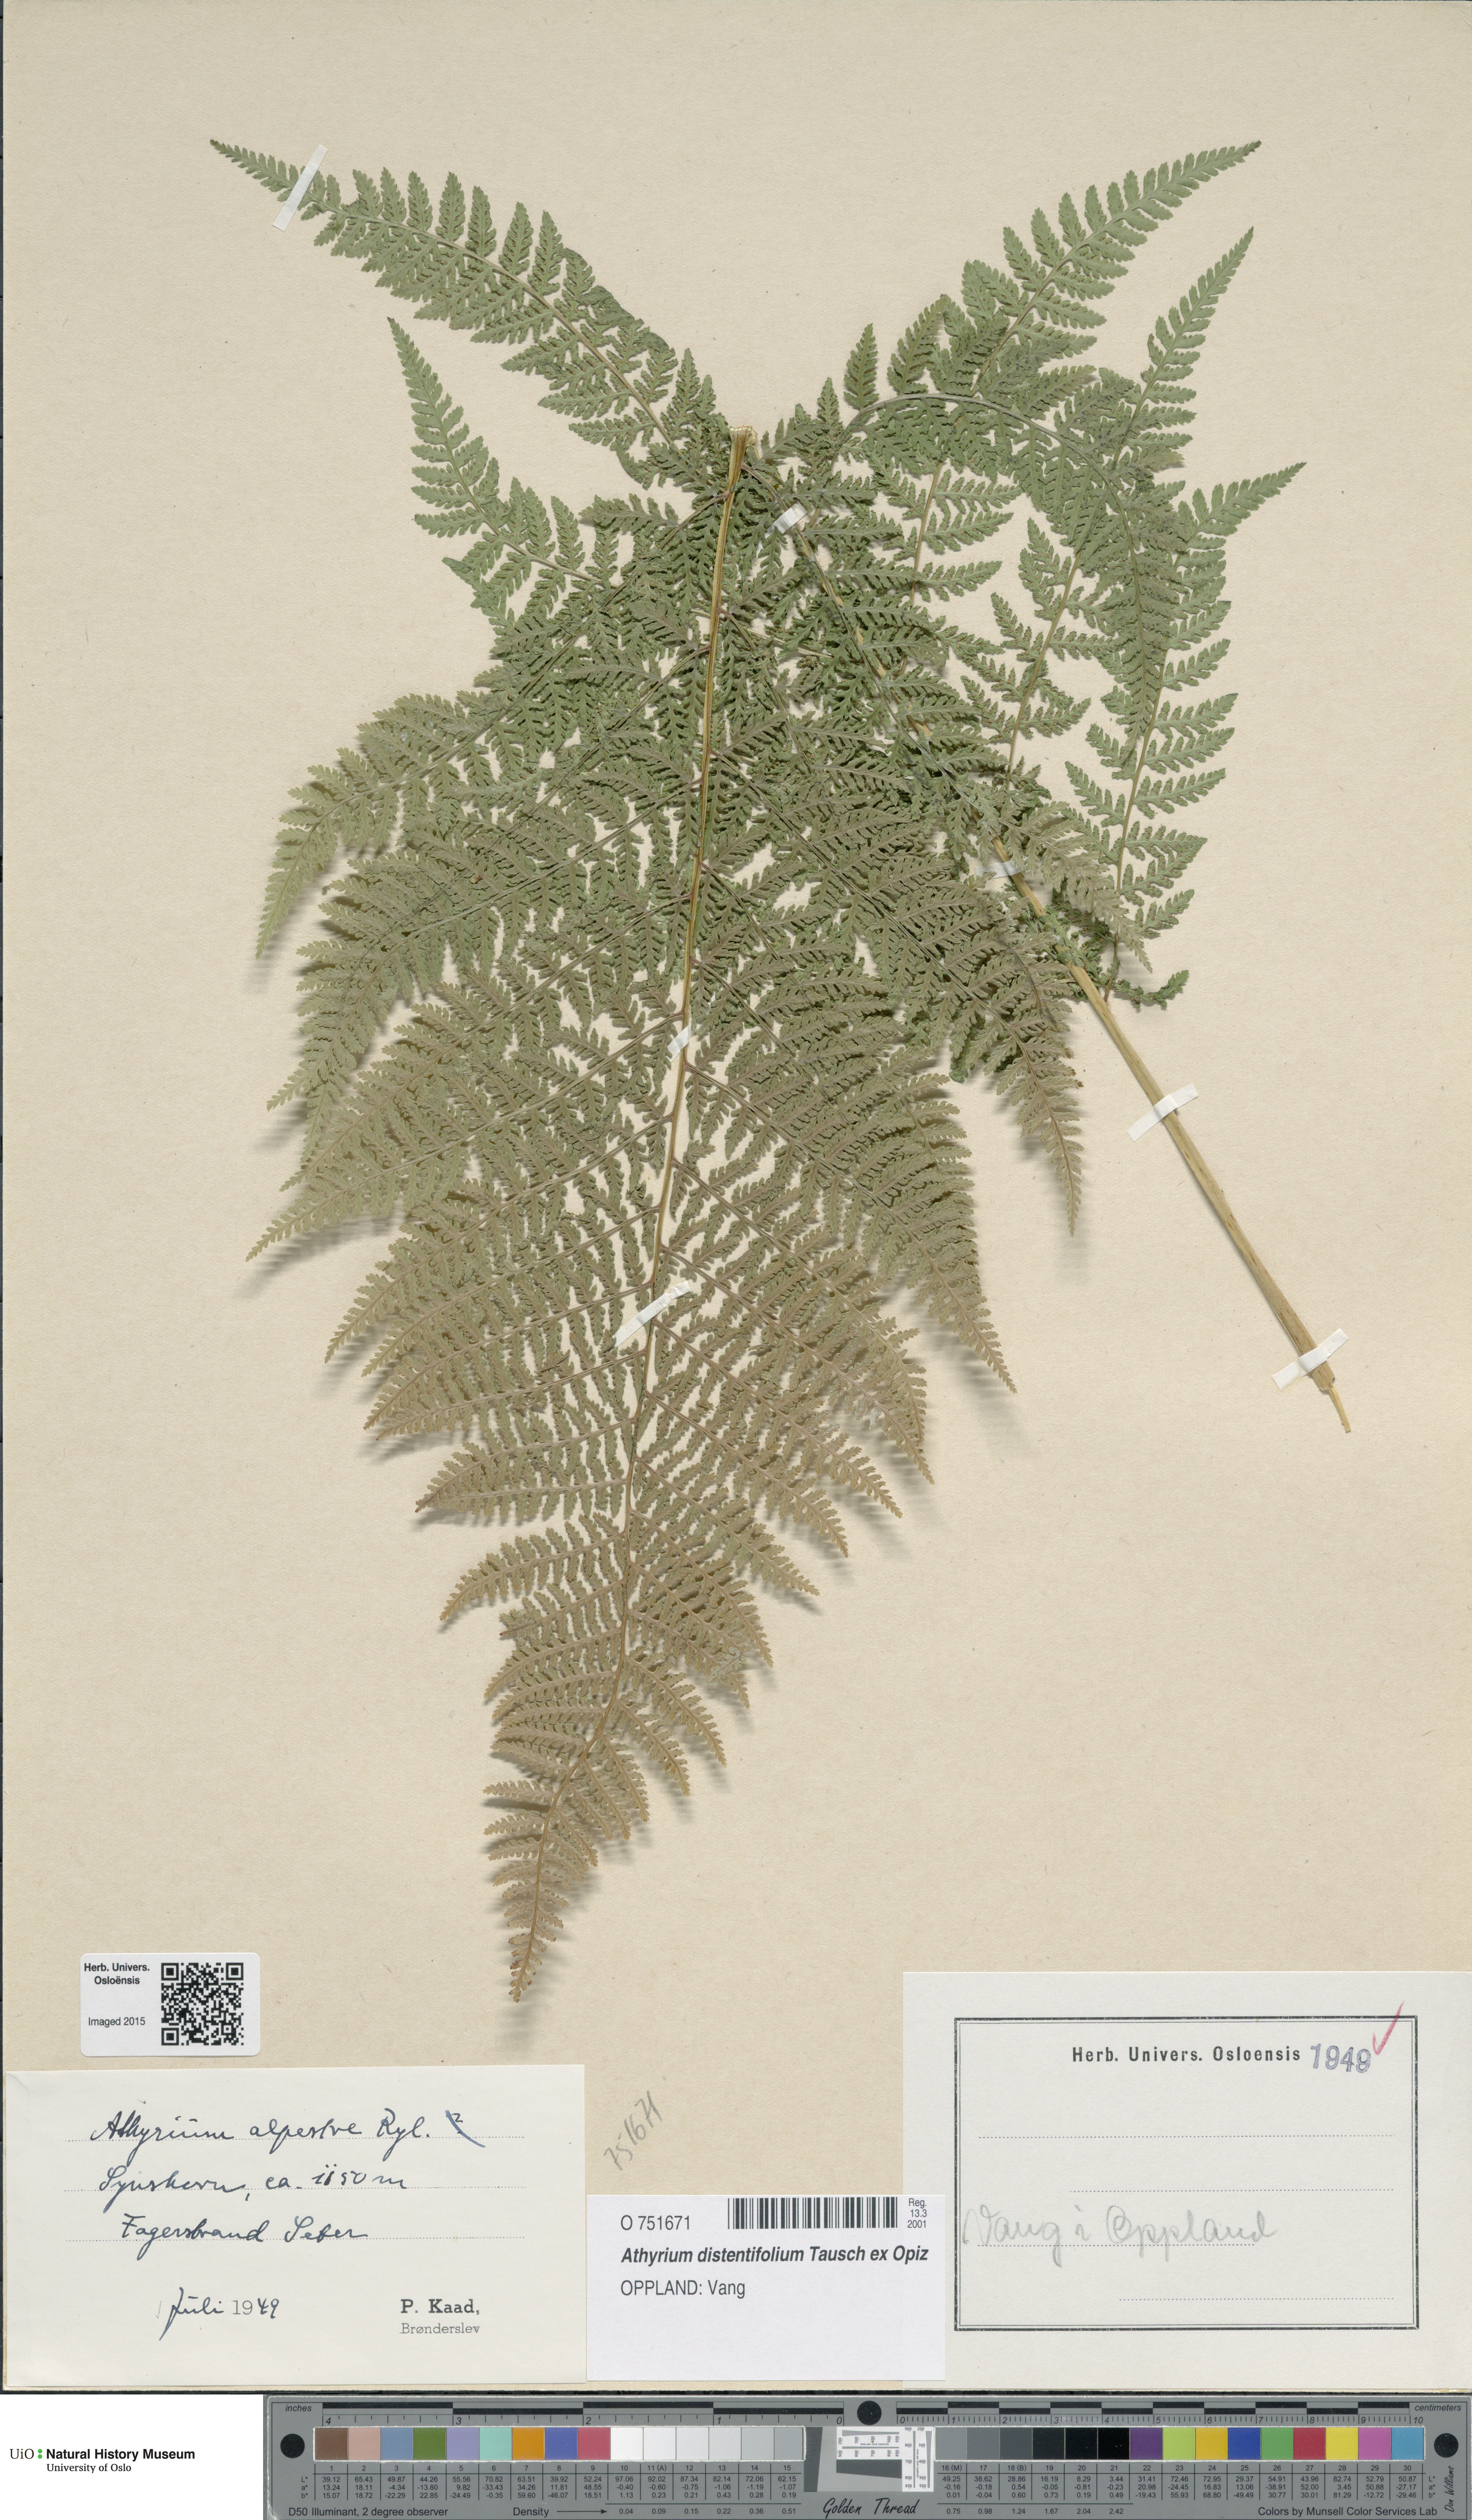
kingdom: Plantae
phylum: Tracheophyta
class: Polypodiopsida
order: Polypodiales
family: Athyriaceae
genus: Pseudathyrium
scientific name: Pseudathyrium alpestre
